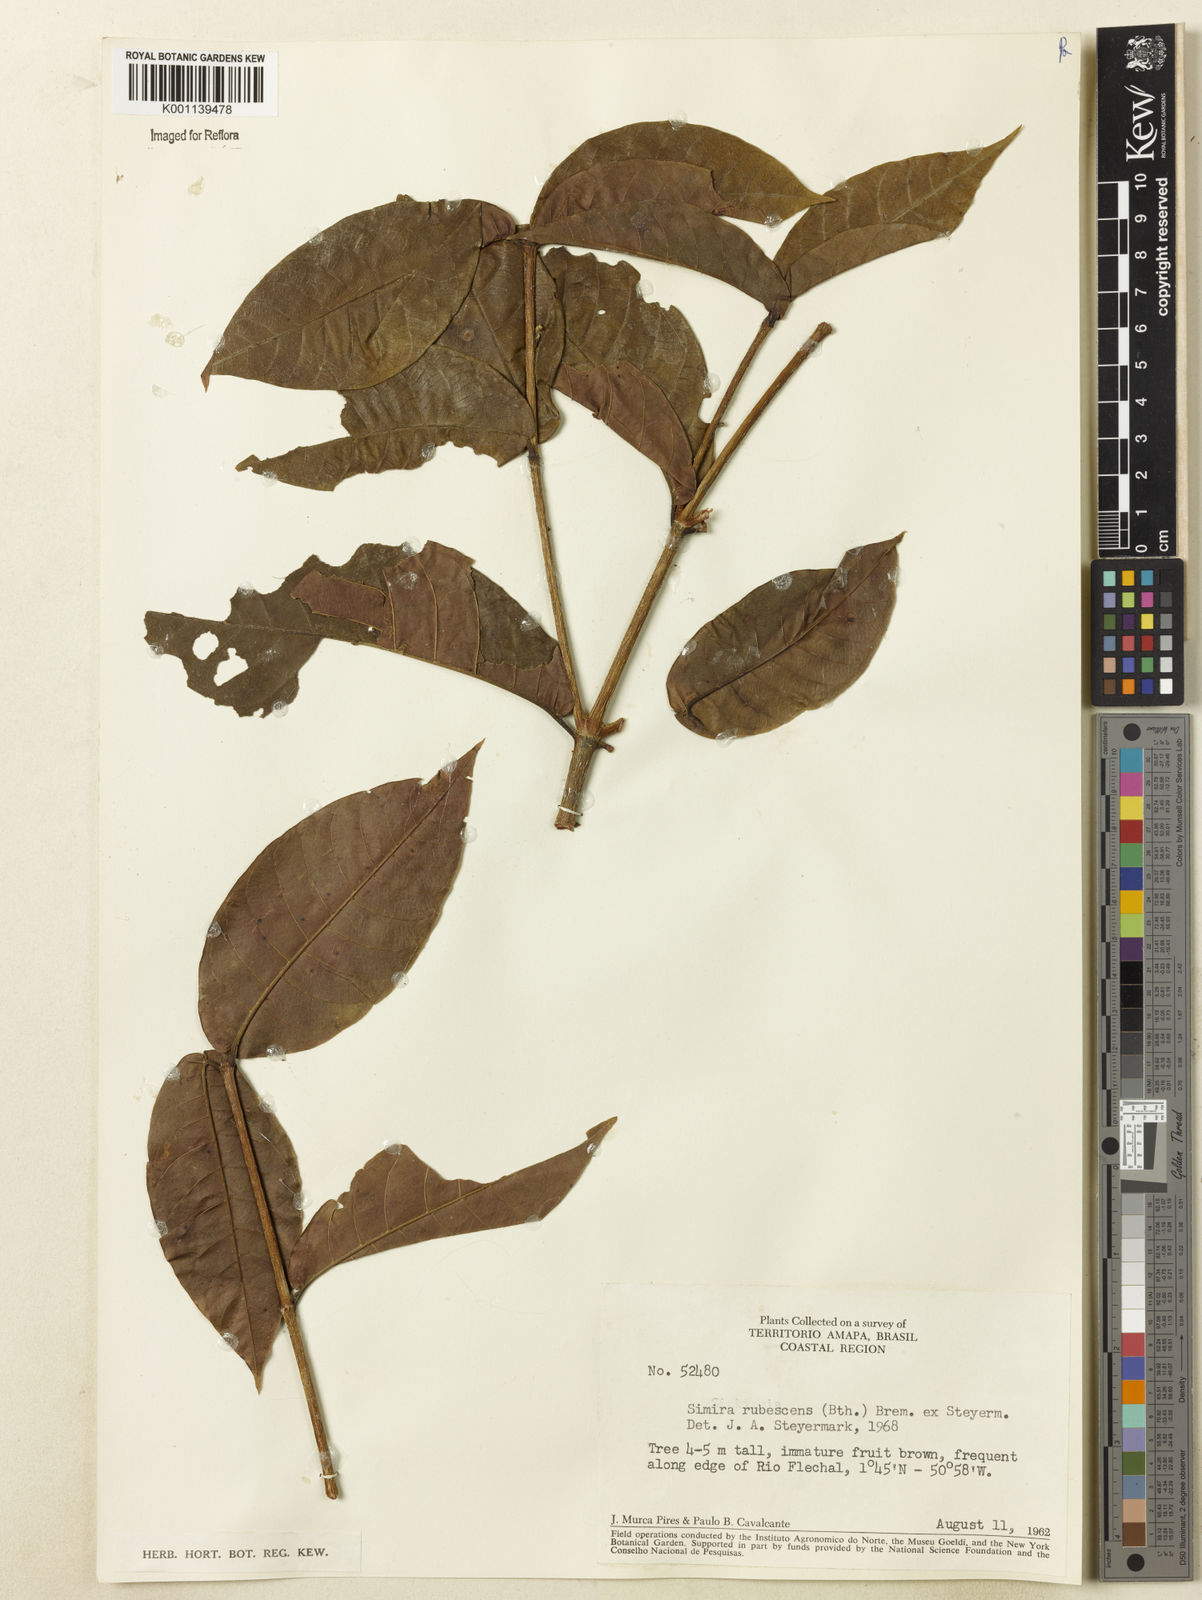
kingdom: Plantae
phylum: Tracheophyta
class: Magnoliopsida
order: Gentianales
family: Rubiaceae
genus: Simira
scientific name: Simira rubescens
